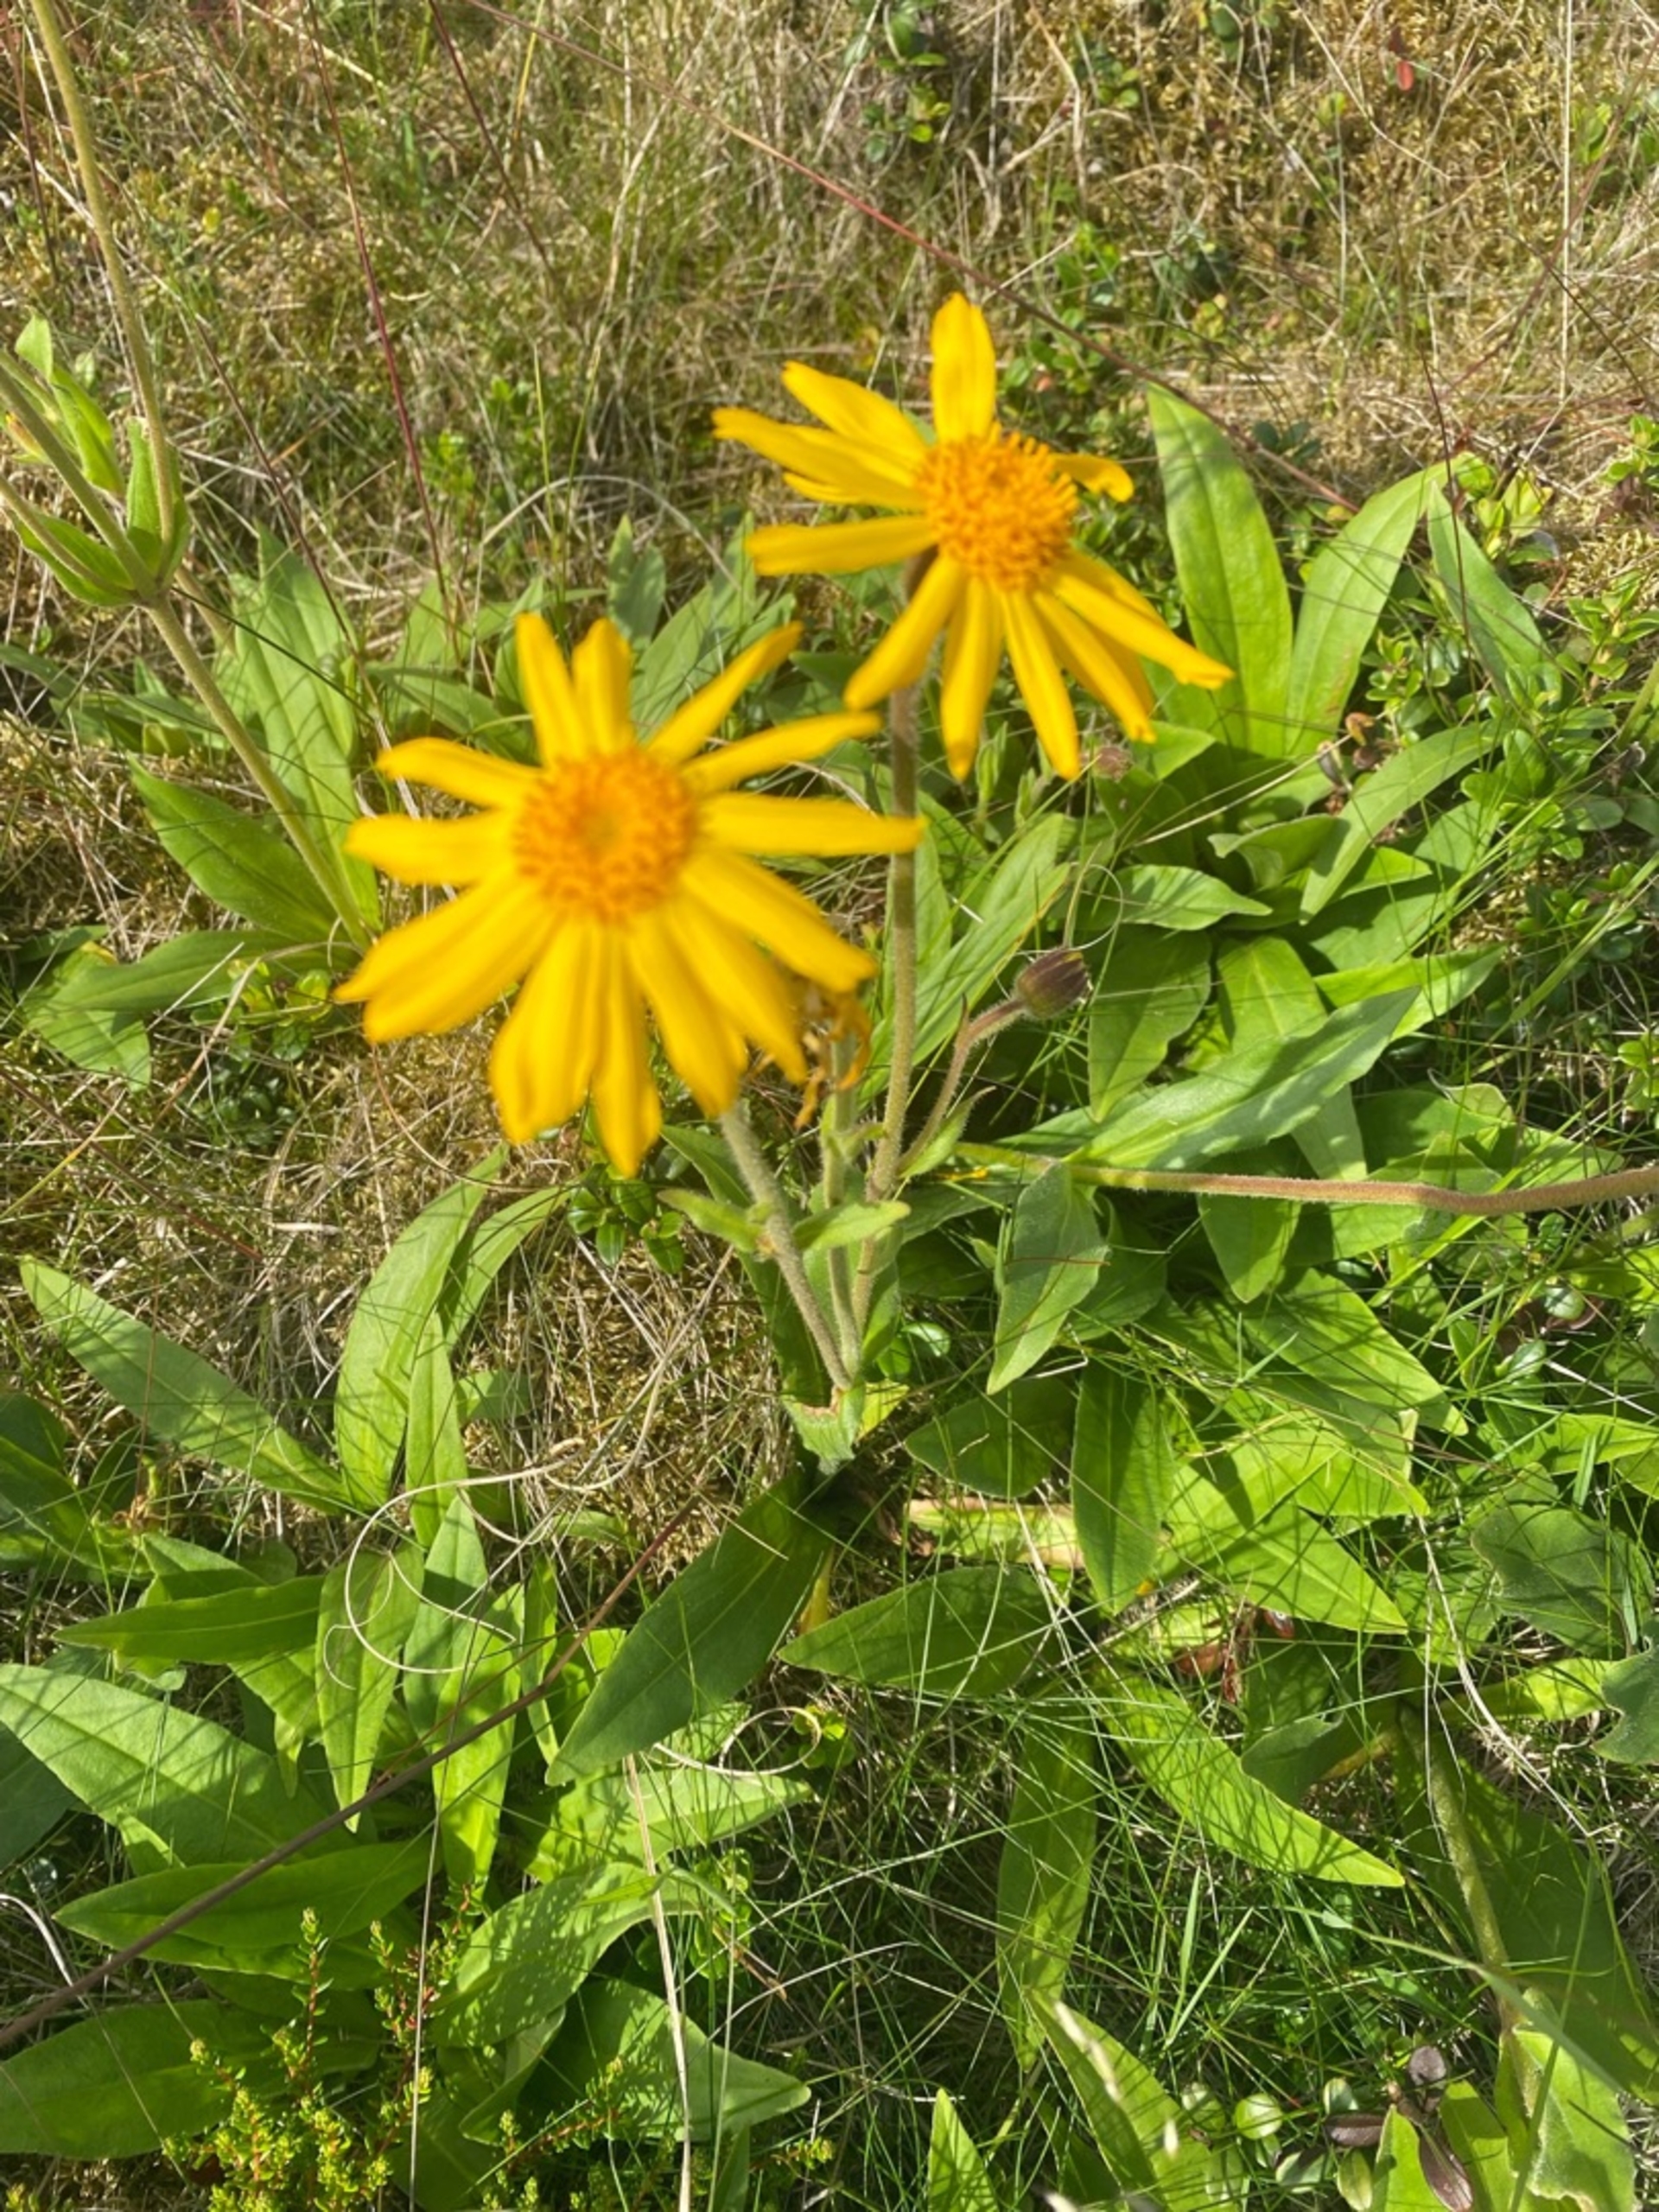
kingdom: Plantae
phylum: Tracheophyta
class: Magnoliopsida
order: Asterales
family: Asteraceae
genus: Arnica
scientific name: Arnica montana
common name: Guldblomme
